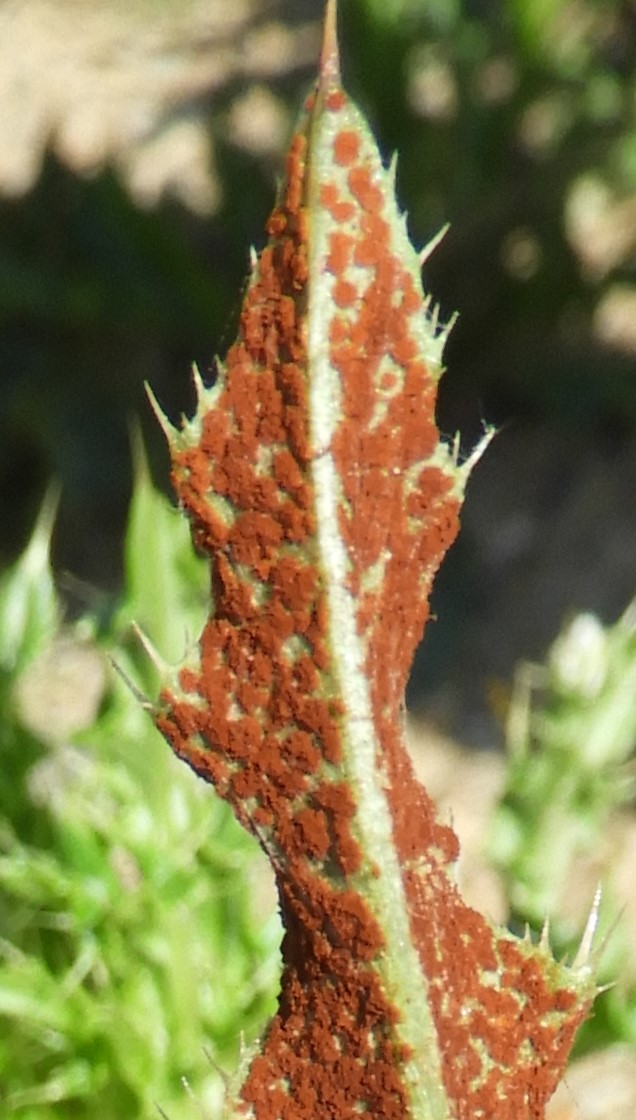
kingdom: Fungi
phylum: Basidiomycota
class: Pucciniomycetes
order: Pucciniales
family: Pucciniaceae
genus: Puccinia
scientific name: Puccinia suaveolens
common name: tidsel-tvecellerust
